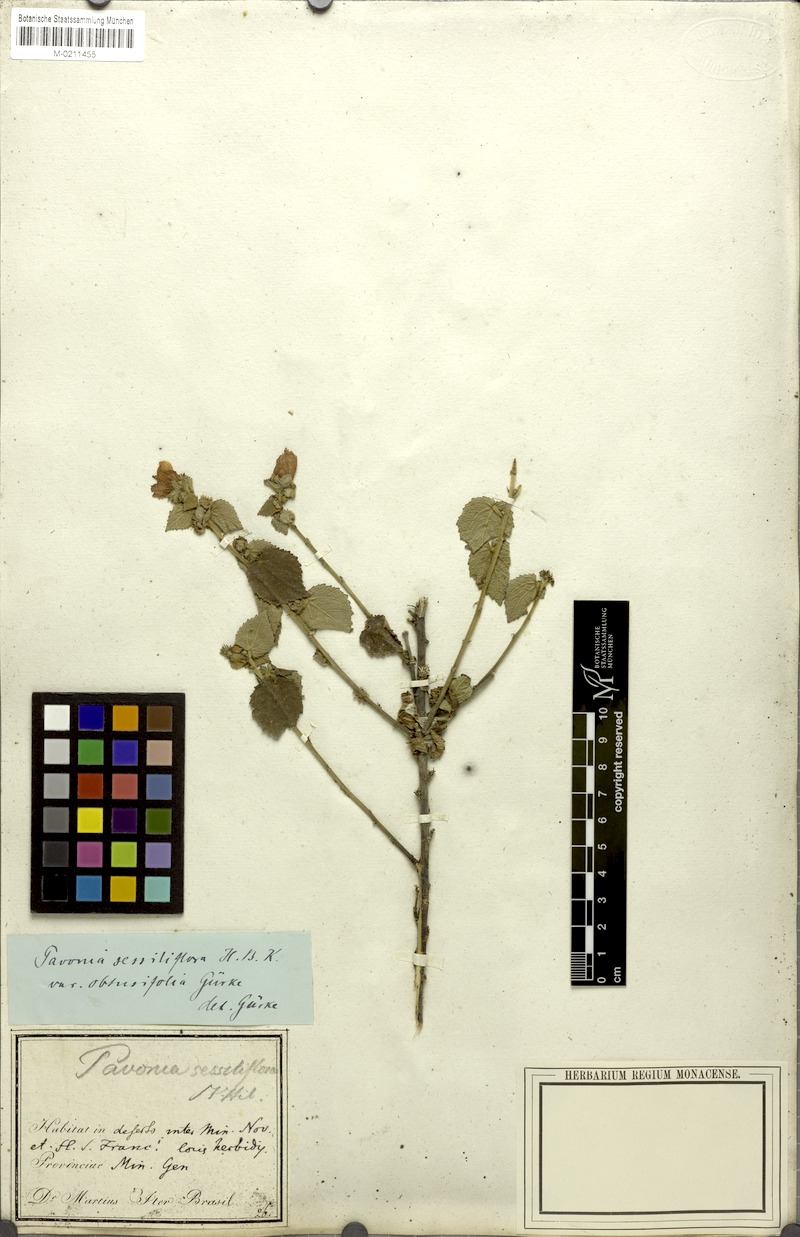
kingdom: Plantae
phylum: Tracheophyta
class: Magnoliopsida
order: Malvales
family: Malvaceae
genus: Peltaea
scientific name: Peltaea trinervis
